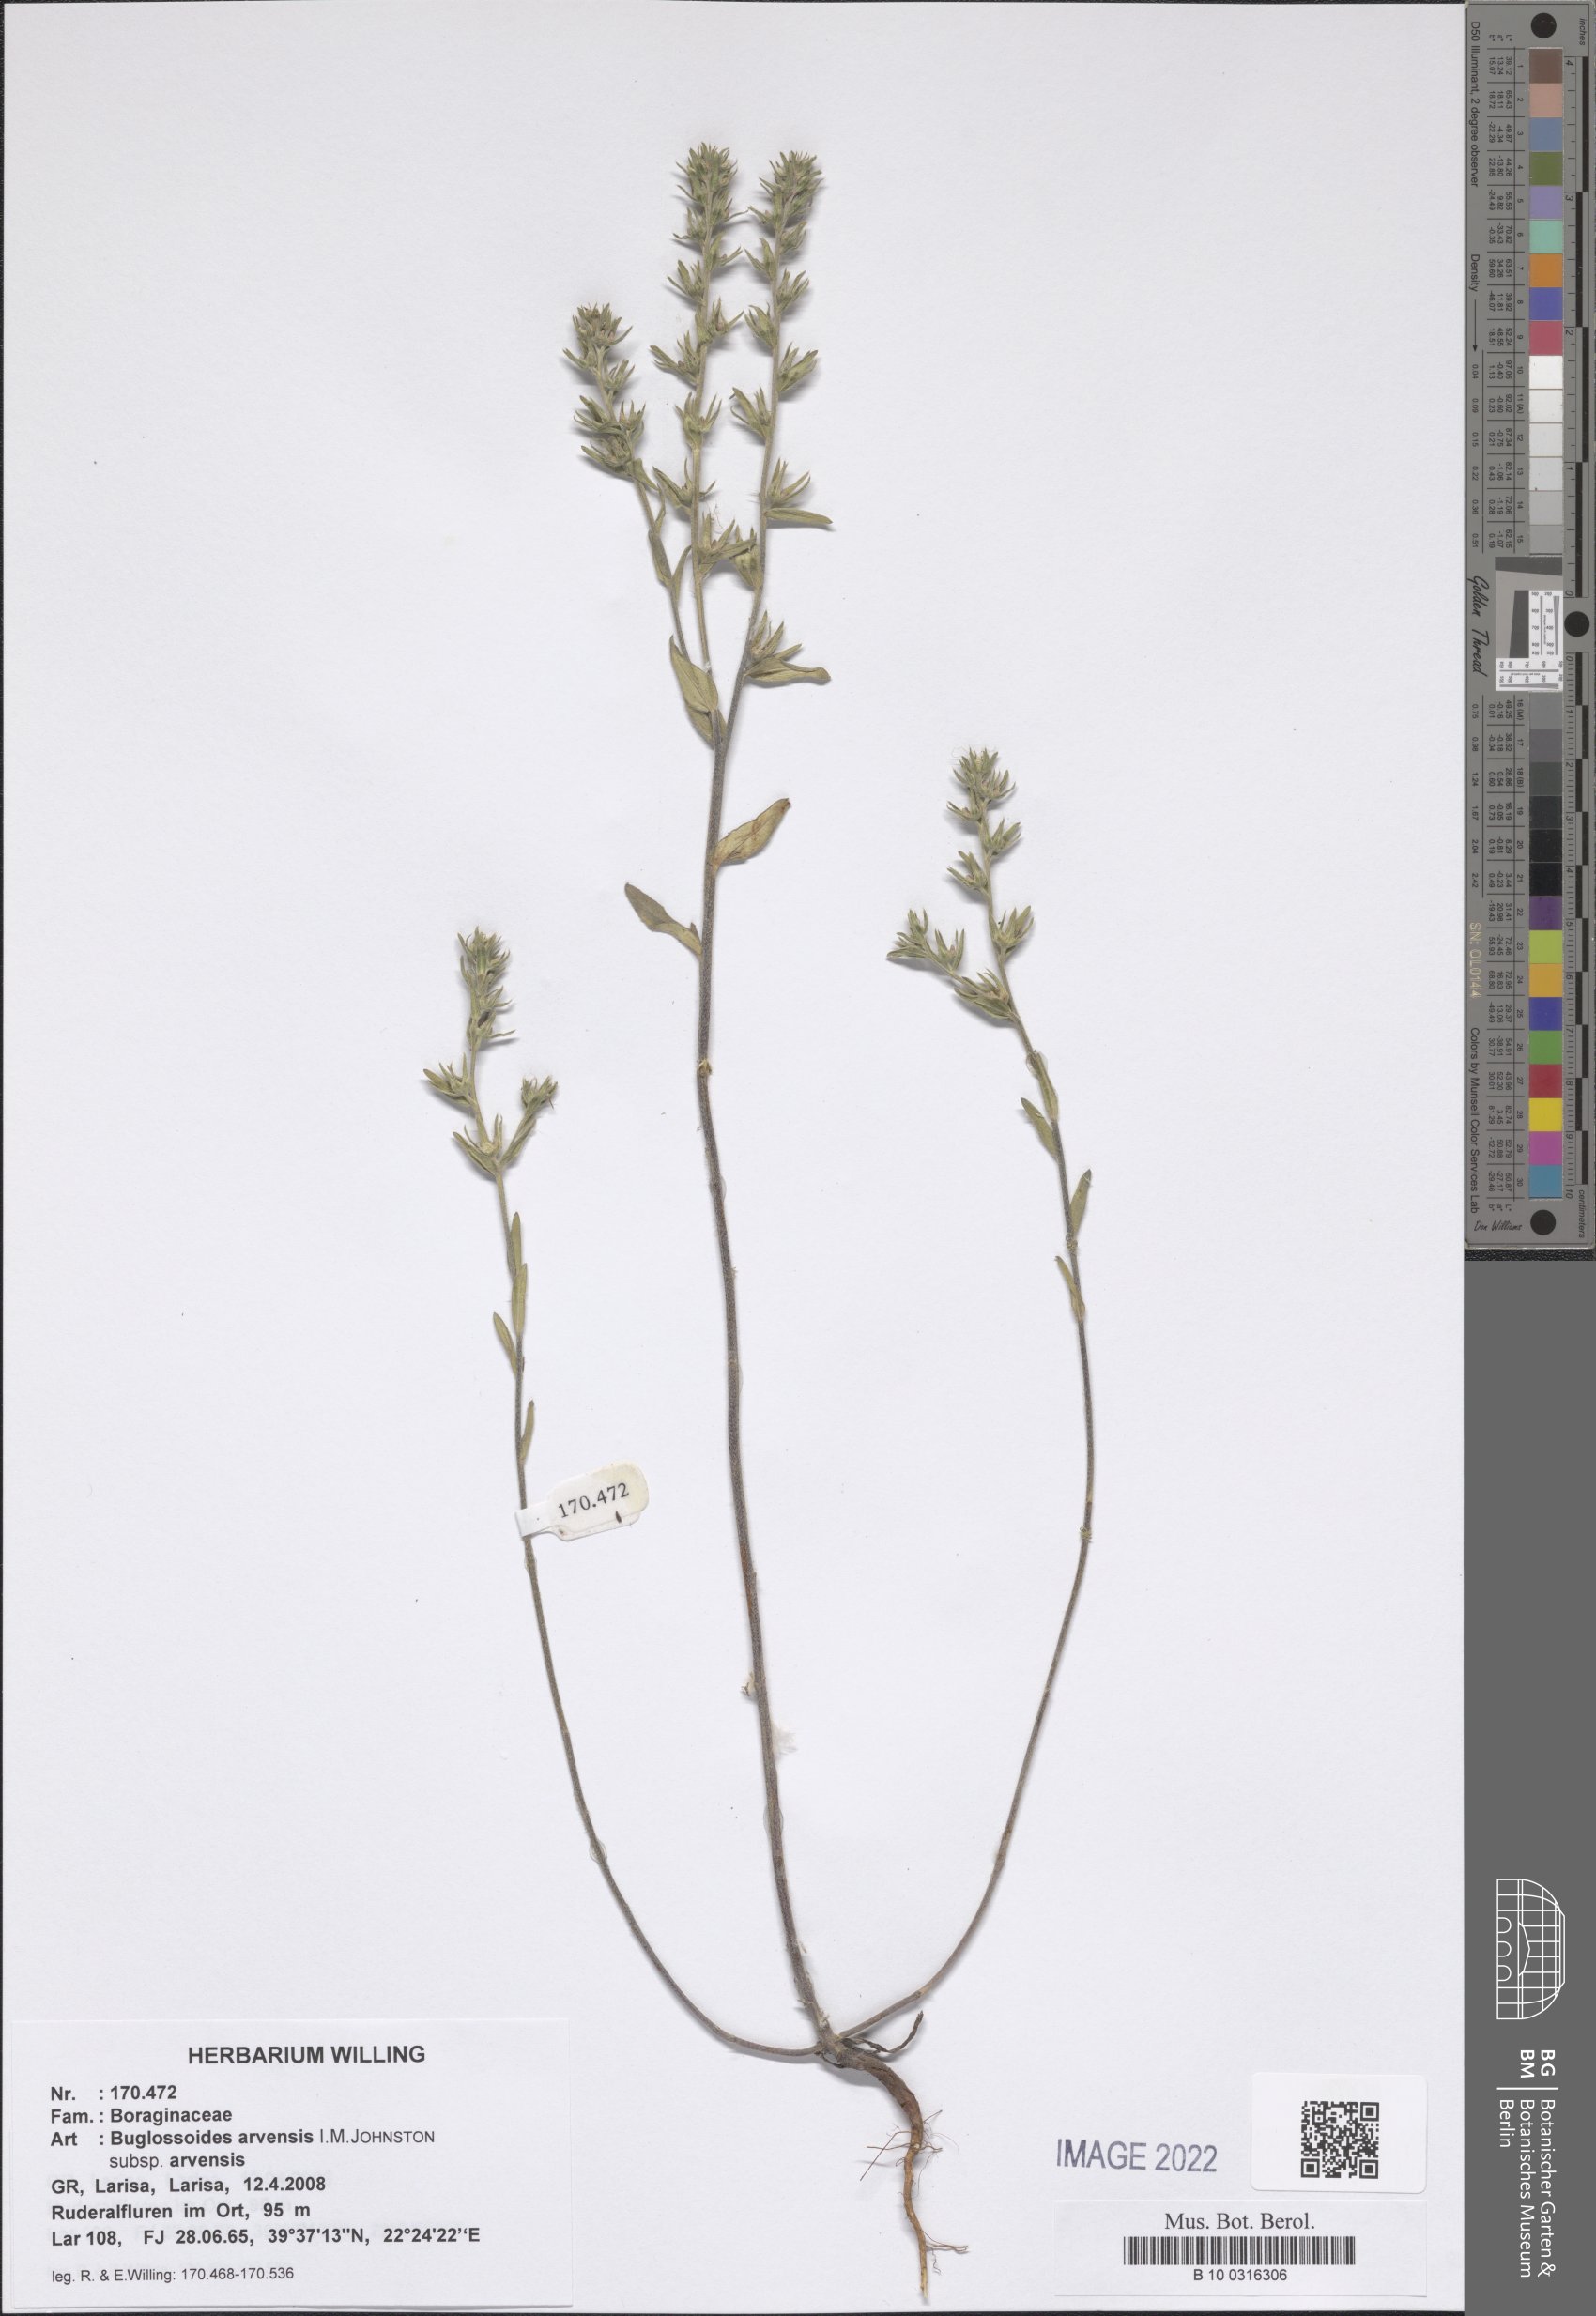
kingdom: Plantae
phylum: Tracheophyta
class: Magnoliopsida
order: Boraginales
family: Boraginaceae
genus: Buglossoides
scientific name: Buglossoides arvensis
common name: Corn gromwell
